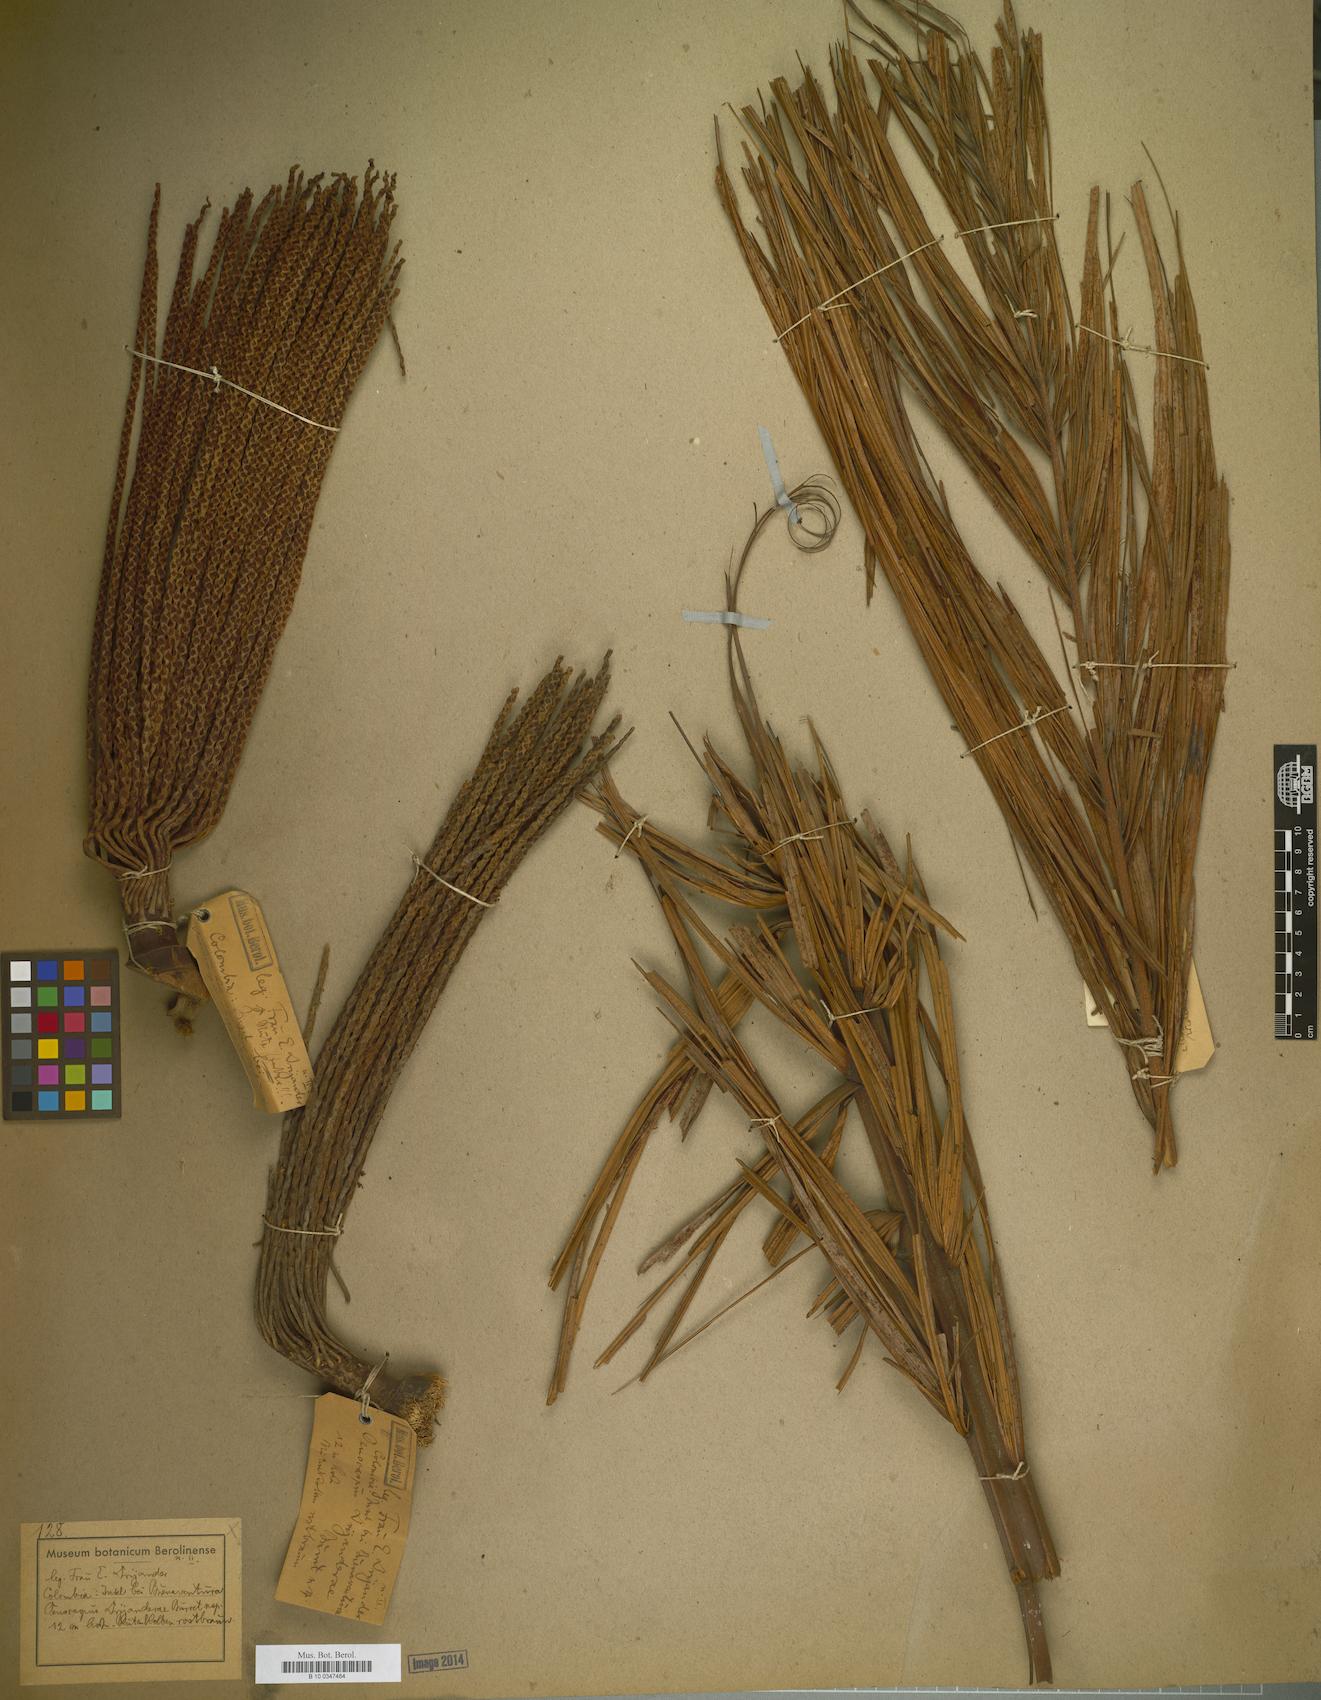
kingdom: Plantae
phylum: Tracheophyta
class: Liliopsida
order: Arecales
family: Arecaceae
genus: Oenocarpus
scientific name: Oenocarpus mapora
